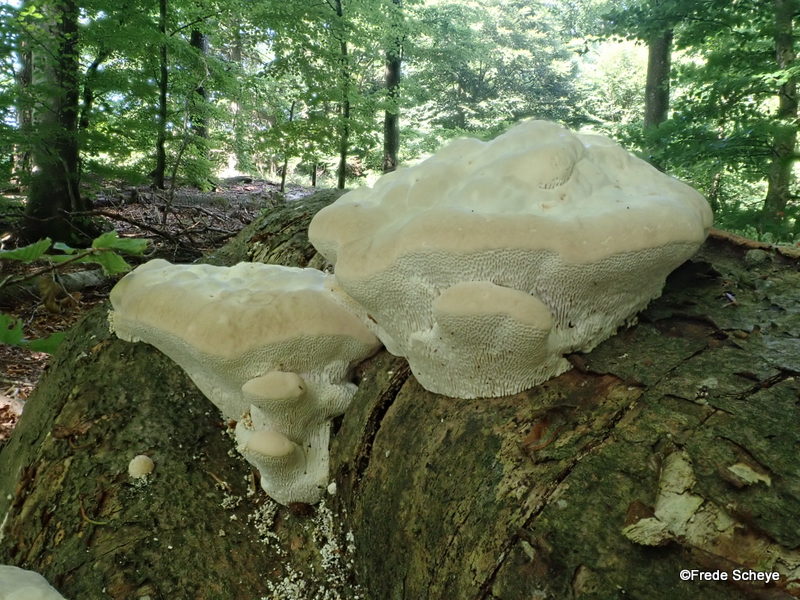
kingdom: Fungi
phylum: Basidiomycota
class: Agaricomycetes
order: Polyporales
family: Polyporaceae
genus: Trametes
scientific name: Trametes gibbosa
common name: puklet læderporesvamp
